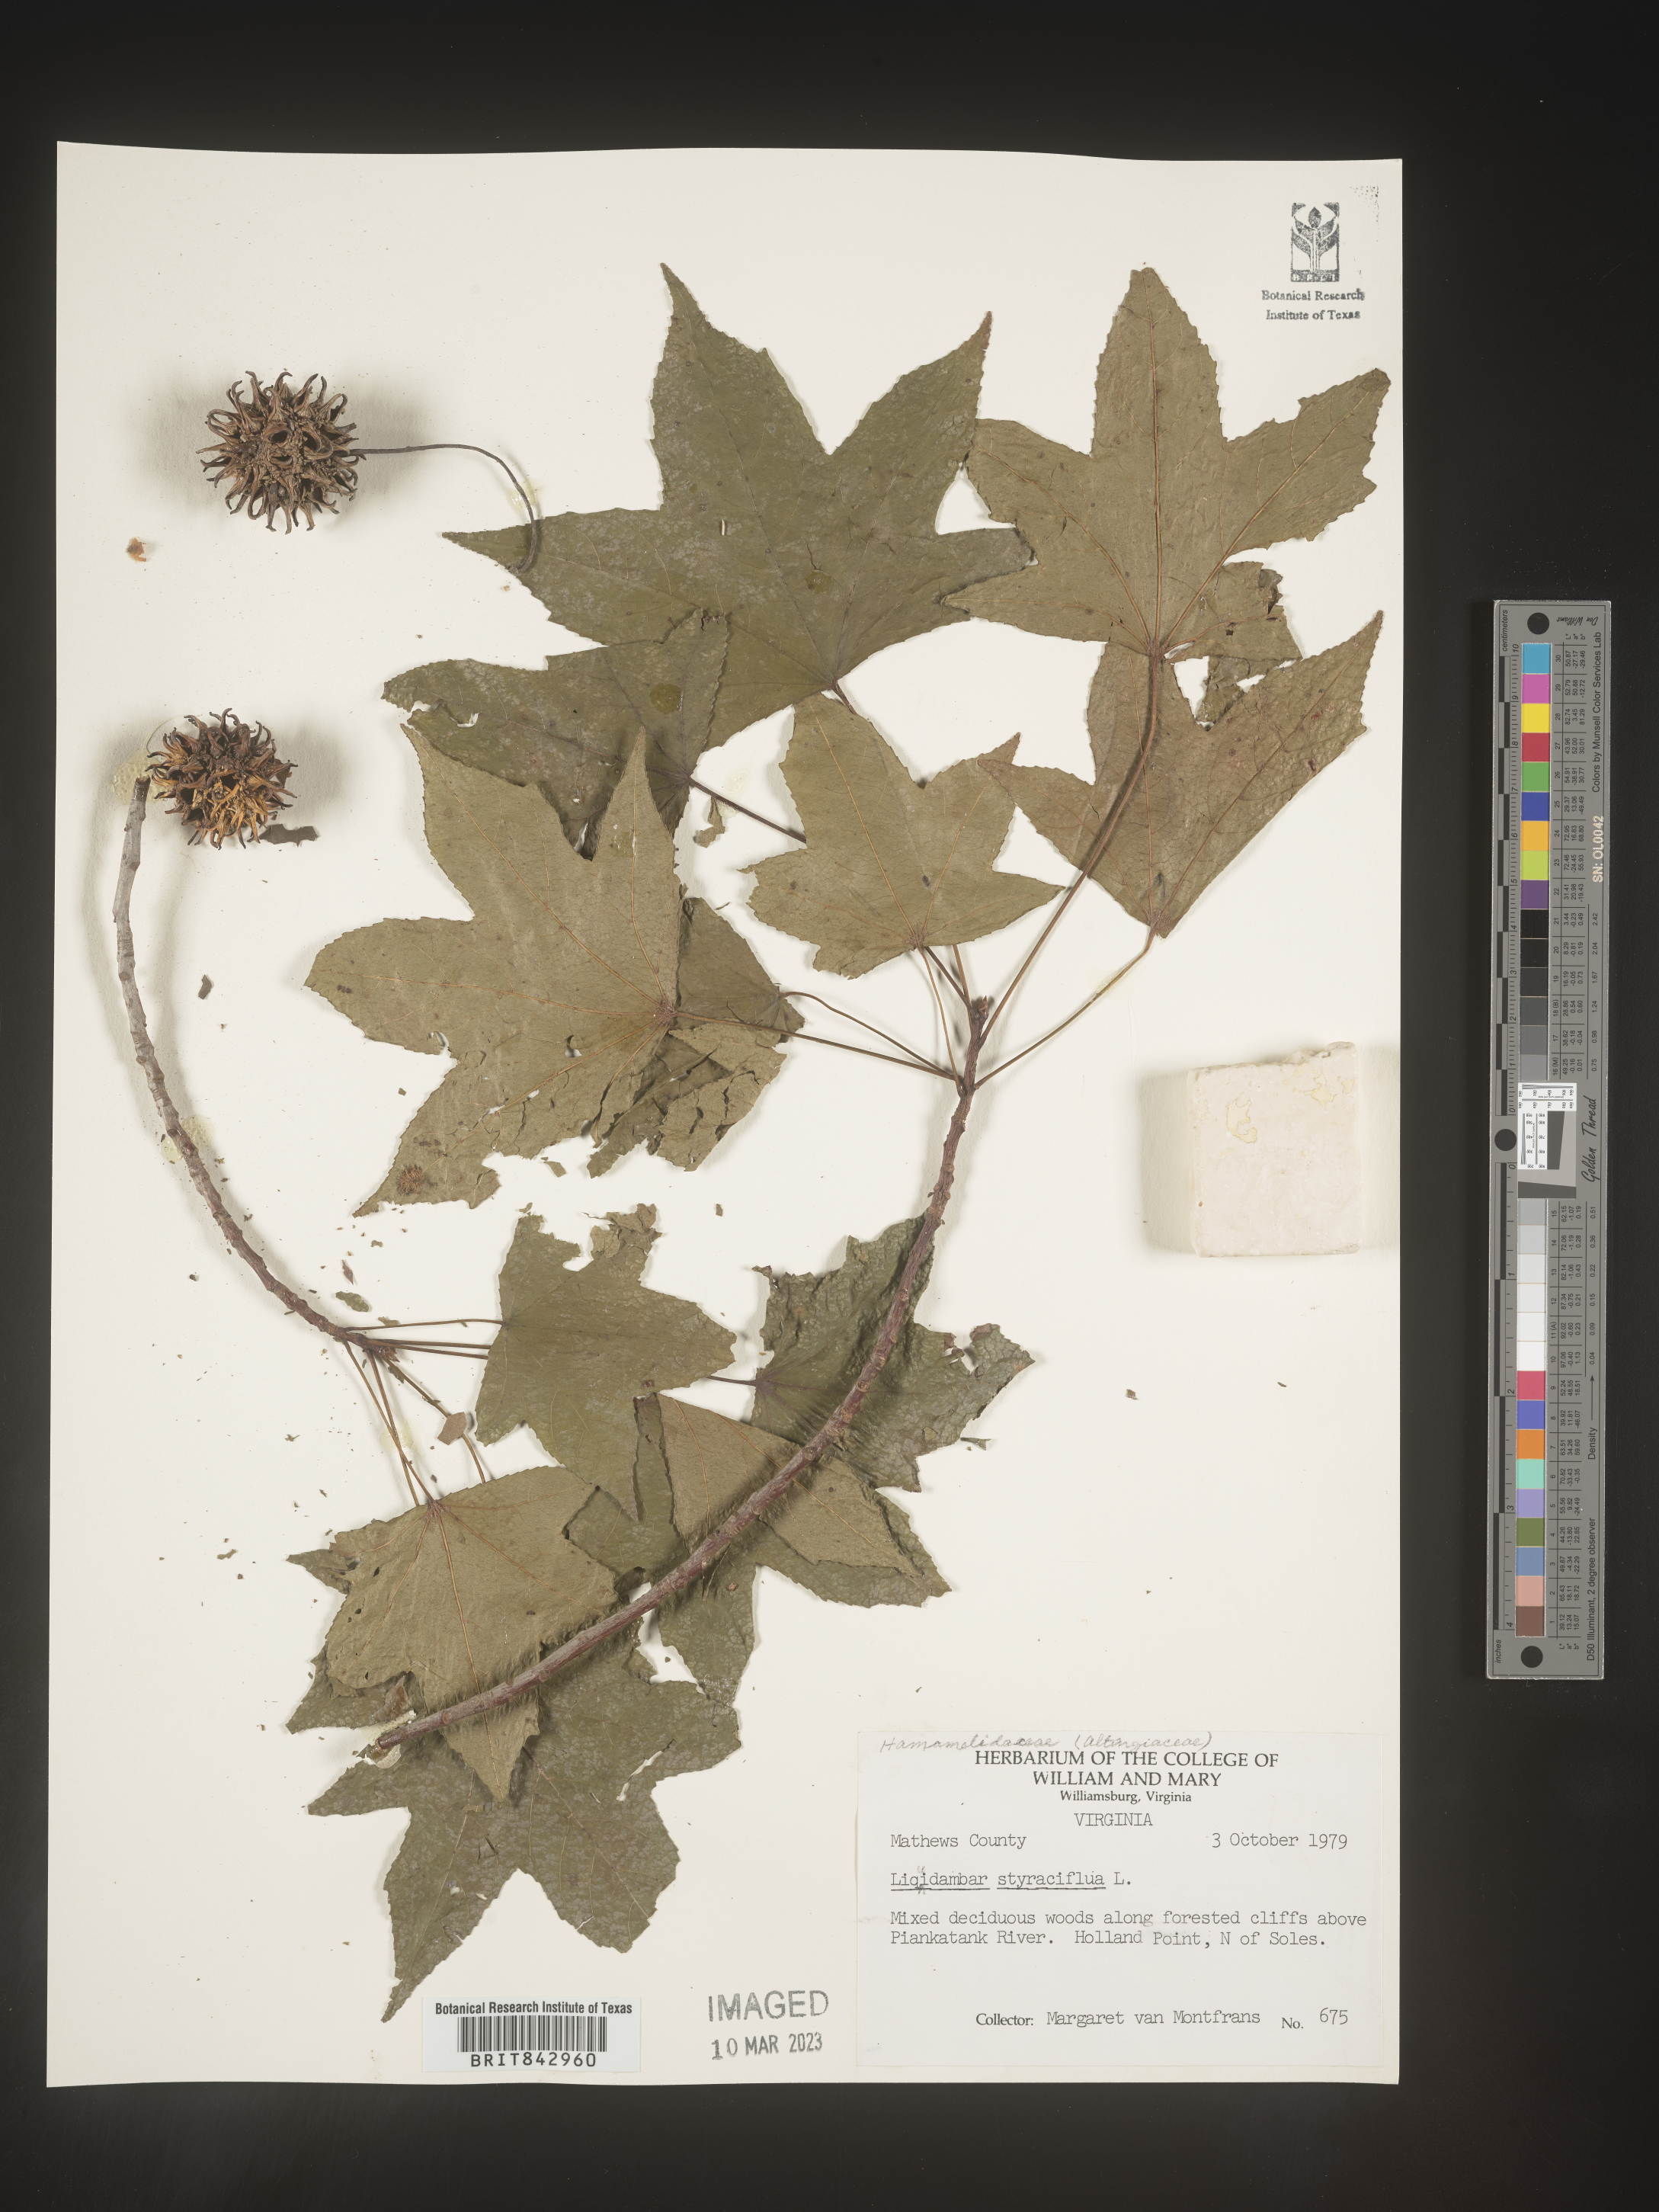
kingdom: Plantae
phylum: Tracheophyta
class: Magnoliopsida
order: Saxifragales
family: Altingiaceae
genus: Liquidambar
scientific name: Liquidambar styraciflua
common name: Sweet gum
